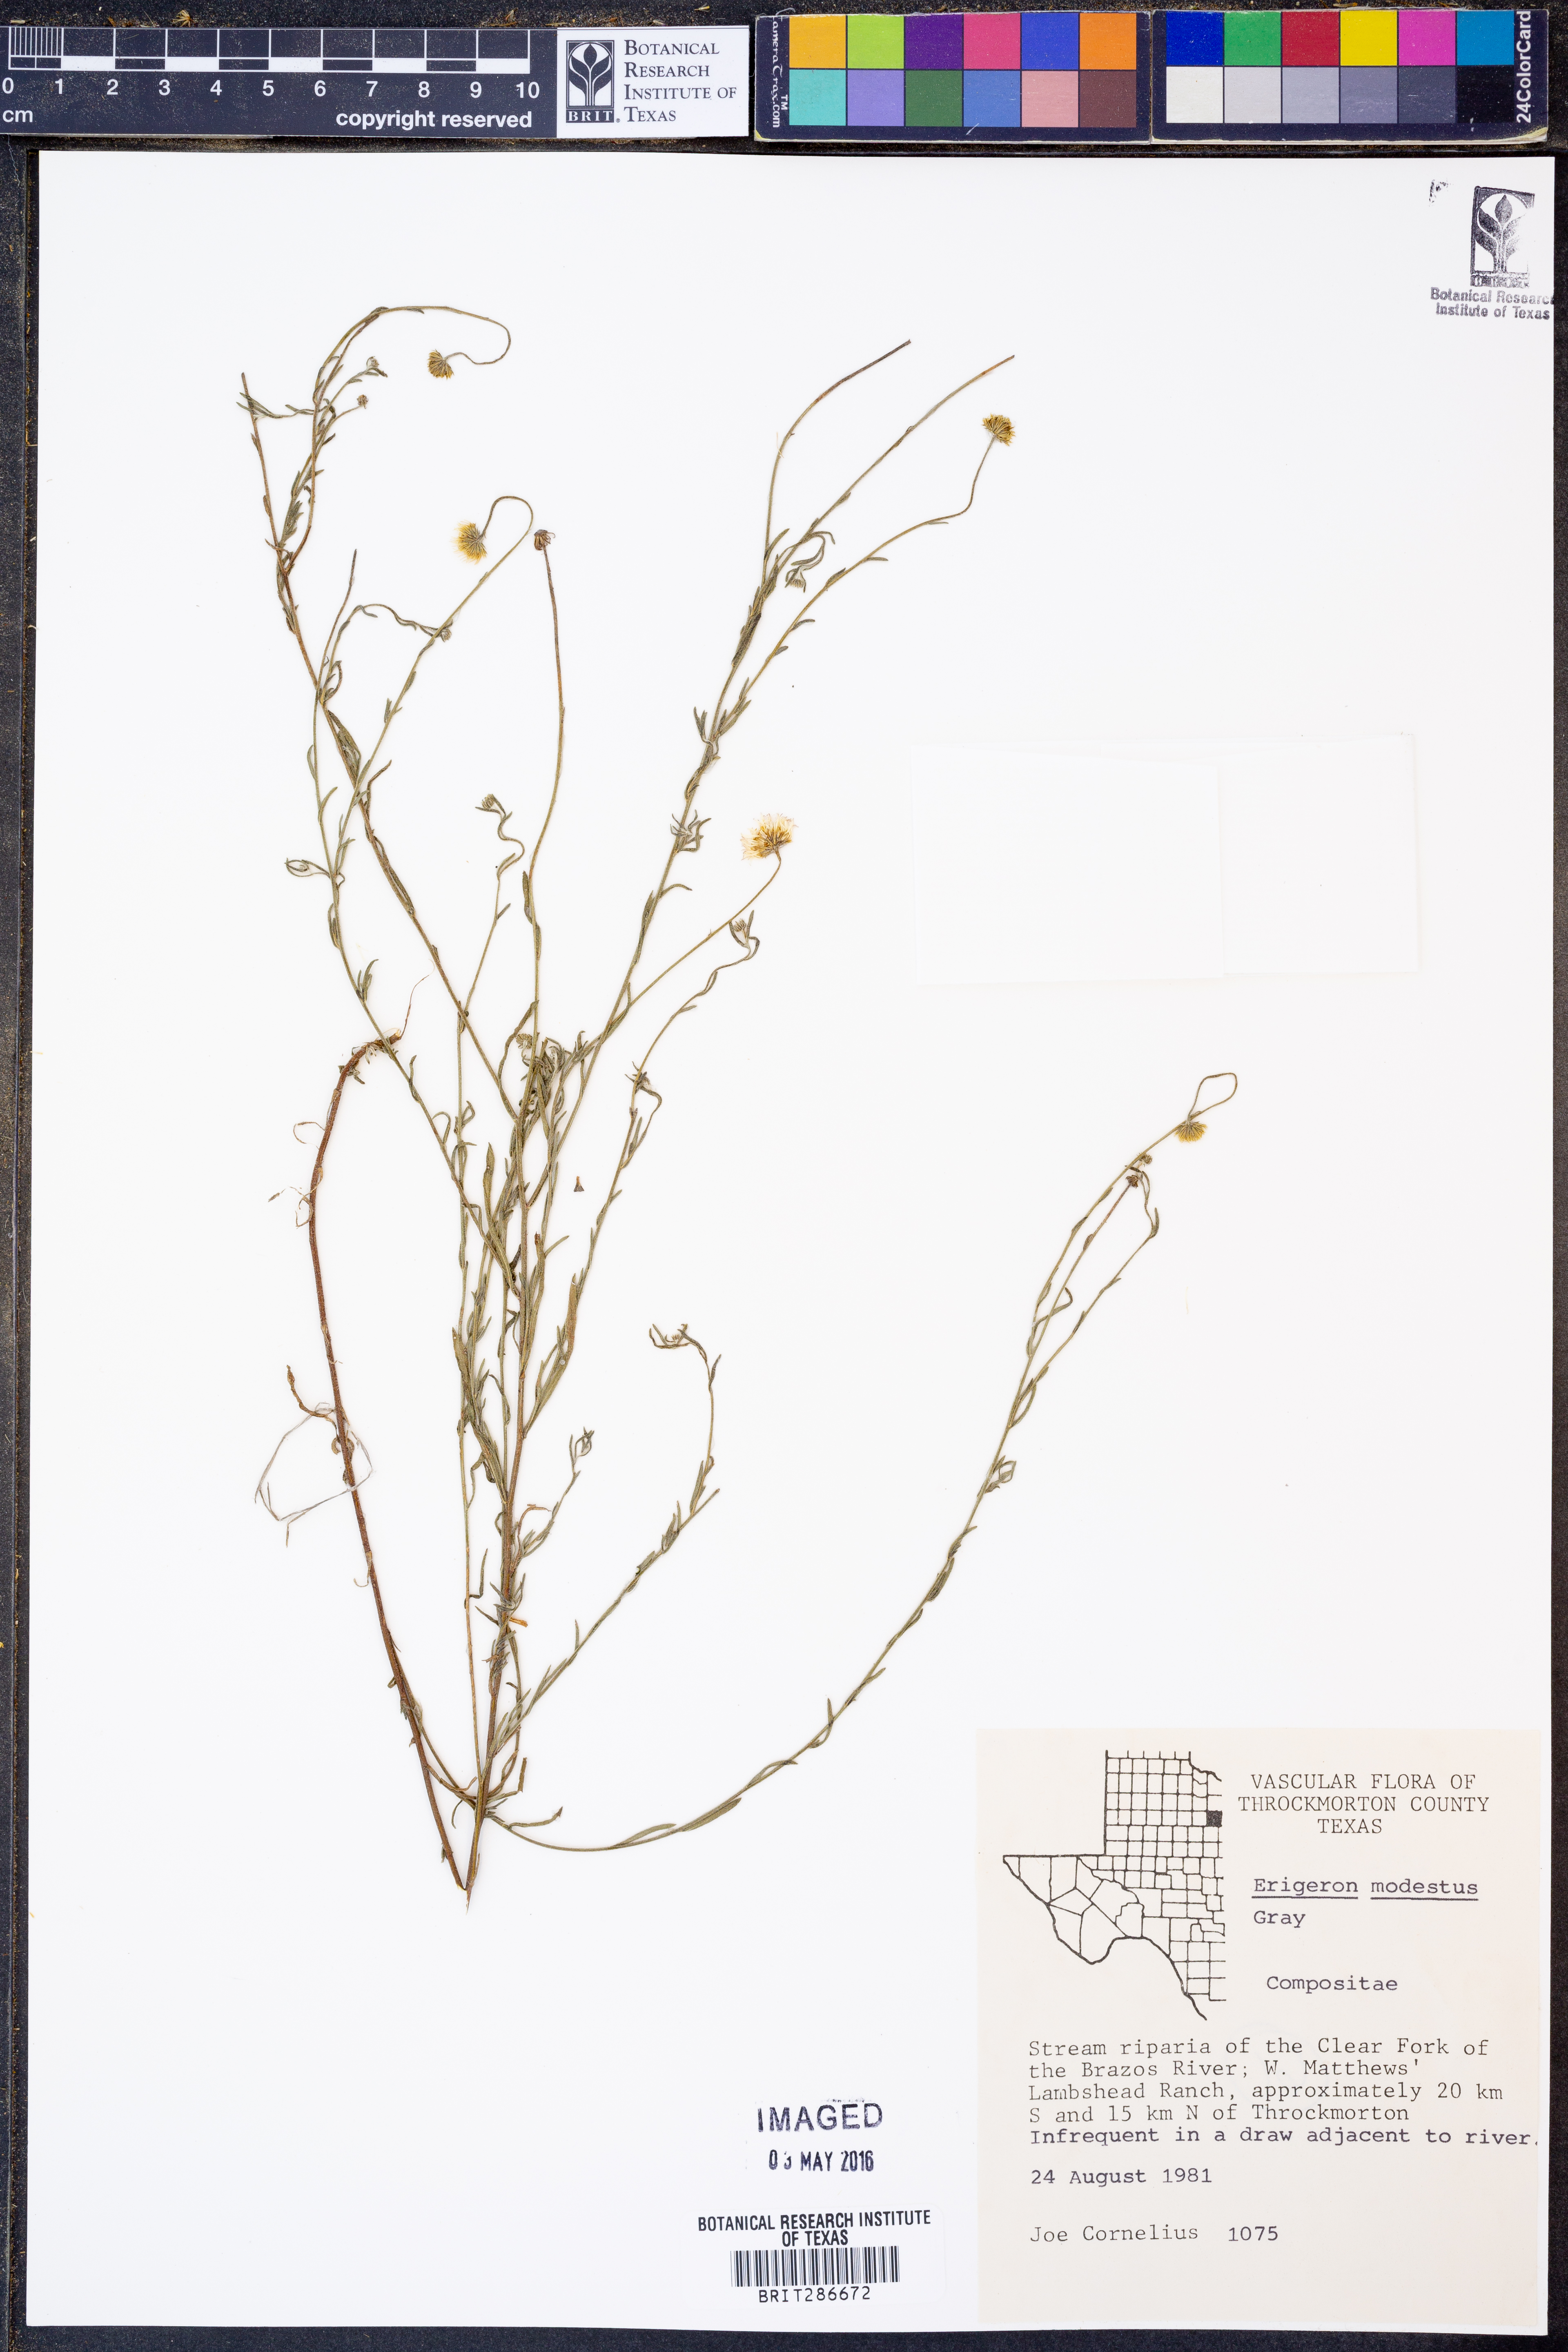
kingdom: Plantae
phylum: Tracheophyta
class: Magnoliopsida
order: Asterales
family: Asteraceae
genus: Erigeron
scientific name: Erigeron modestus
